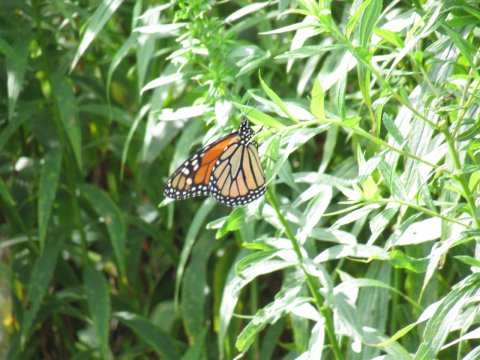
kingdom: Animalia
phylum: Arthropoda
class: Insecta
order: Lepidoptera
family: Nymphalidae
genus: Danaus
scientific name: Danaus plexippus
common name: Monarch
